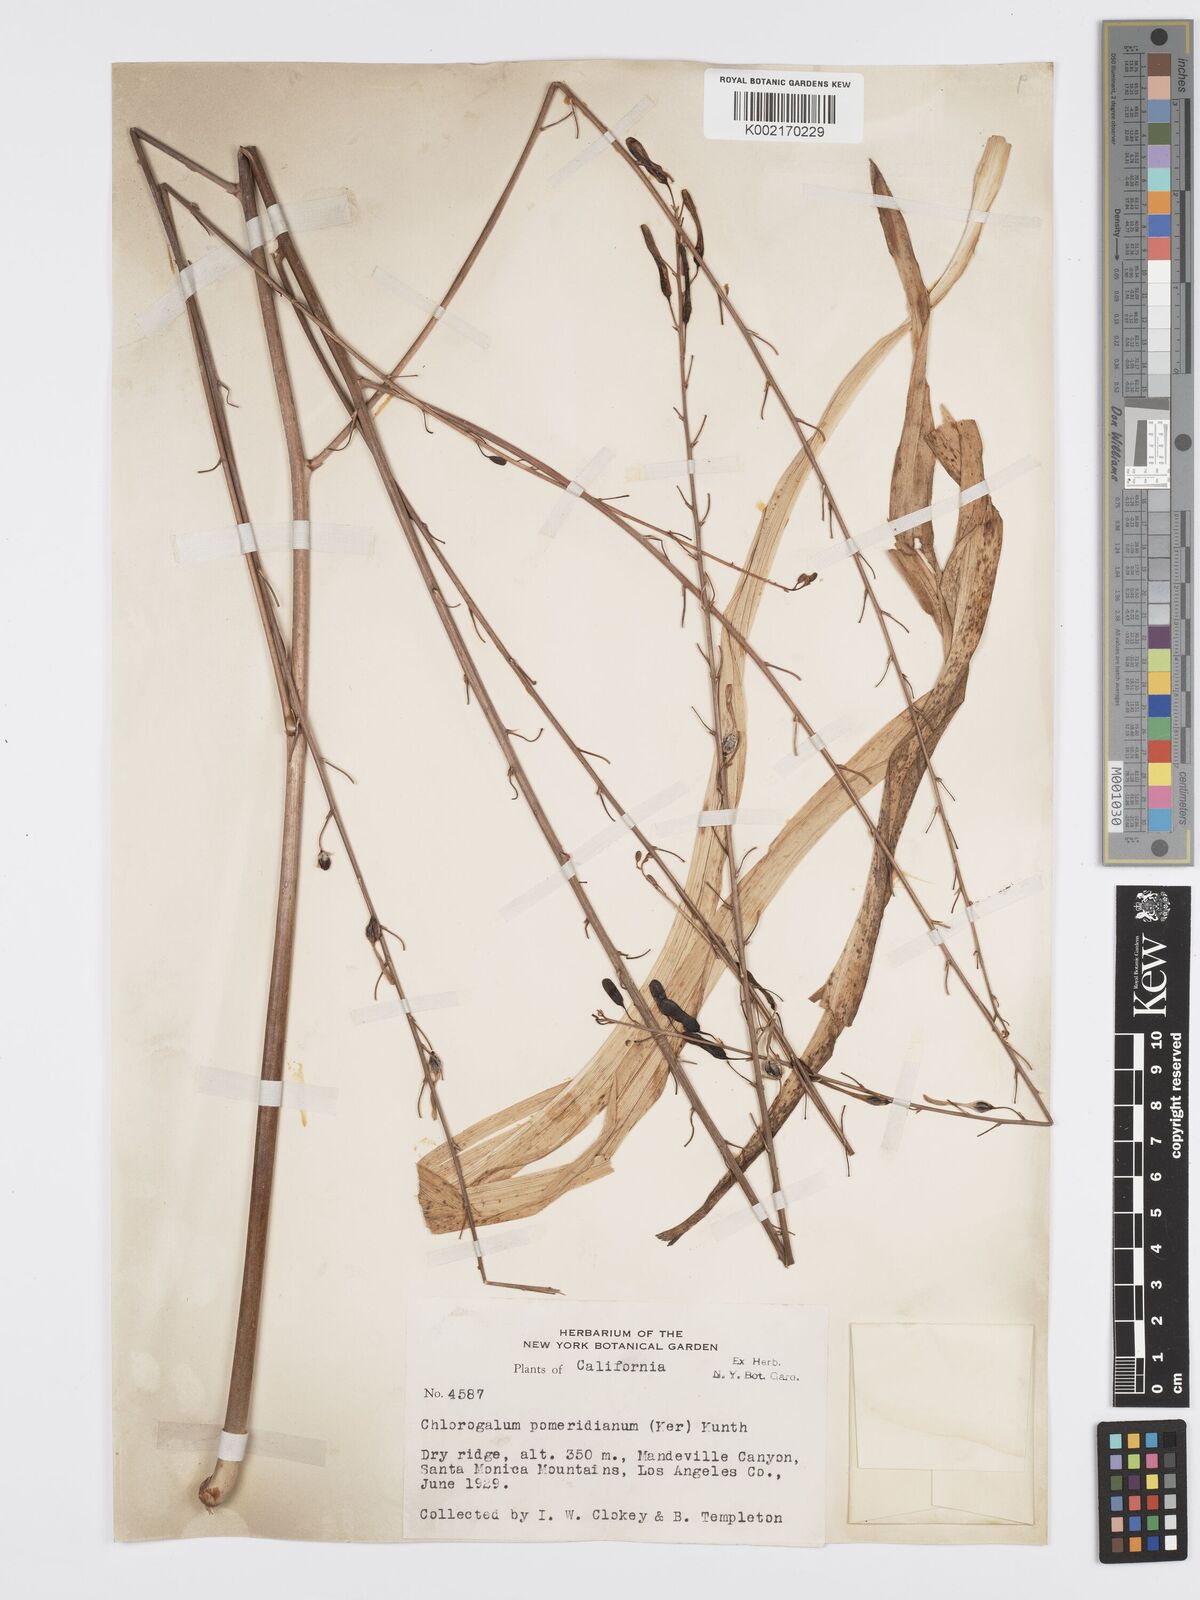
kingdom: Plantae
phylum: Tracheophyta
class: Liliopsida
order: Asparagales
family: Asparagaceae
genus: Chlorogalum
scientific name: Chlorogalum pomeridianum
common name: Amole
